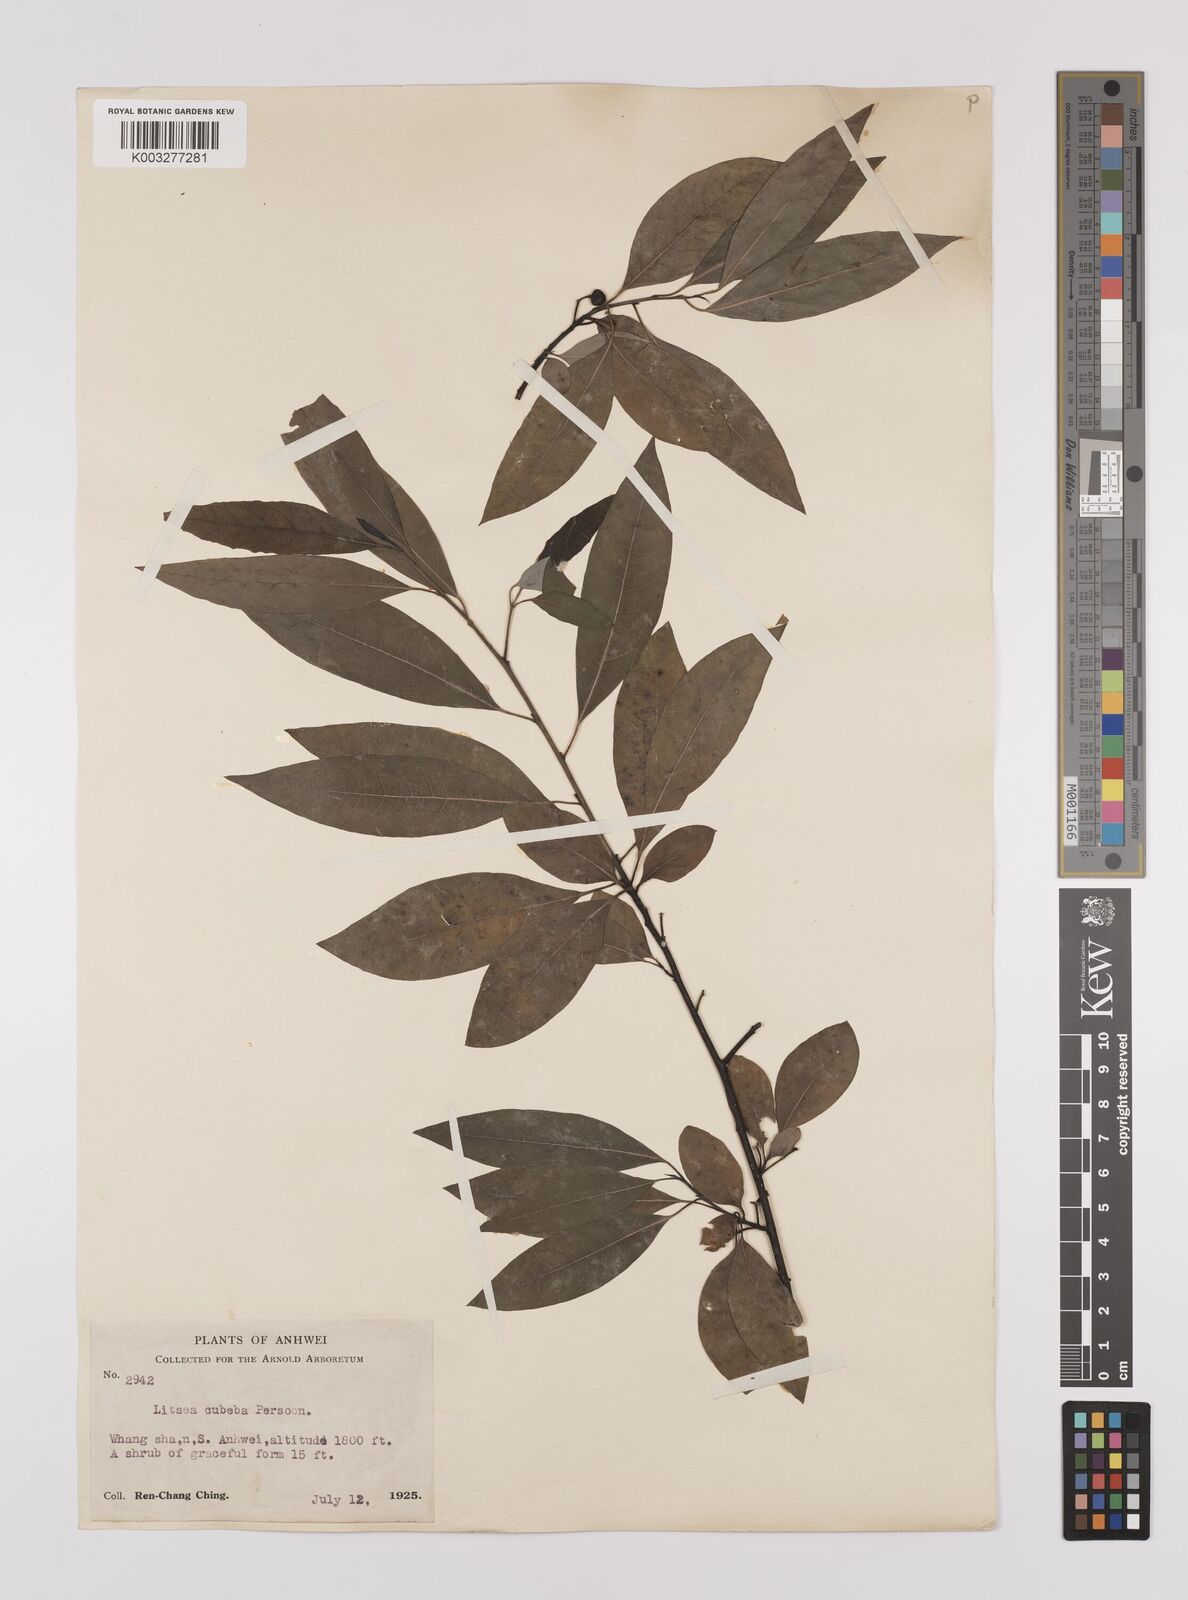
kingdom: Plantae
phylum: Tracheophyta
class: Magnoliopsida
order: Laurales
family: Lauraceae
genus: Litsea
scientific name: Litsea cubeba
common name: Mountain-pepper
